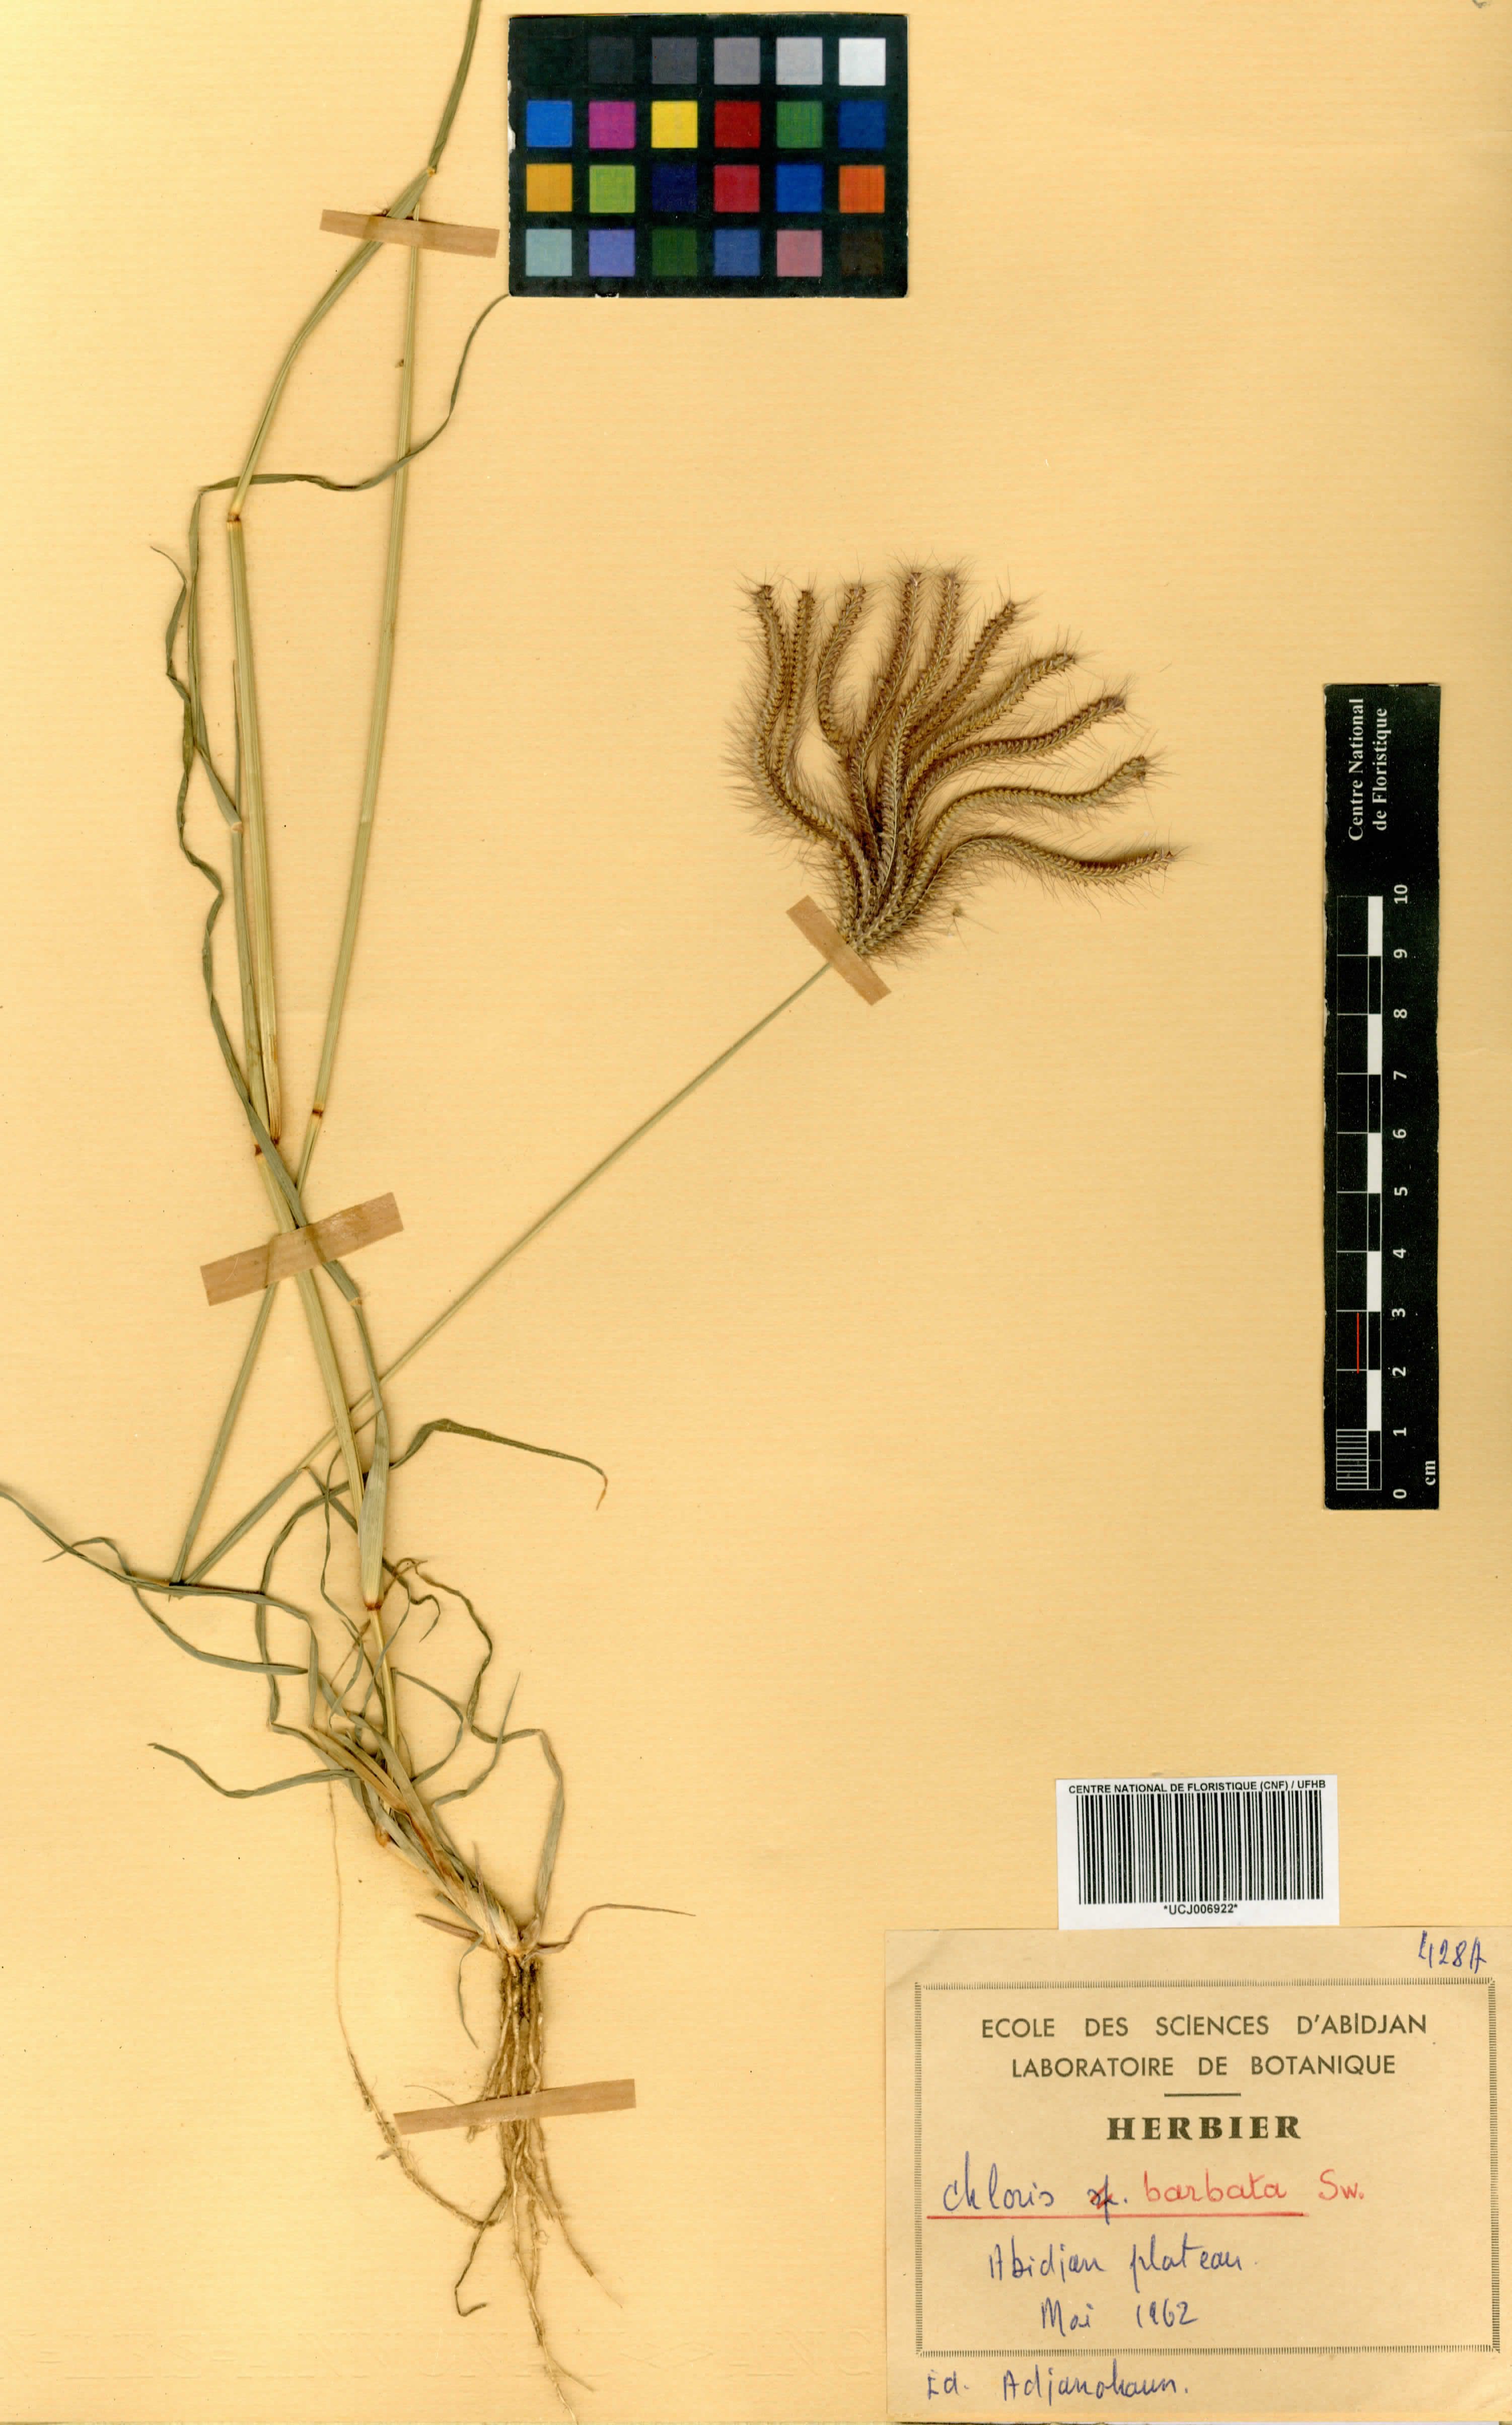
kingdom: Plantae
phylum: Tracheophyta
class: Liliopsida
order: Poales
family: Poaceae
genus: Chloris
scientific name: Chloris barbata
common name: Swollen fingergrass
